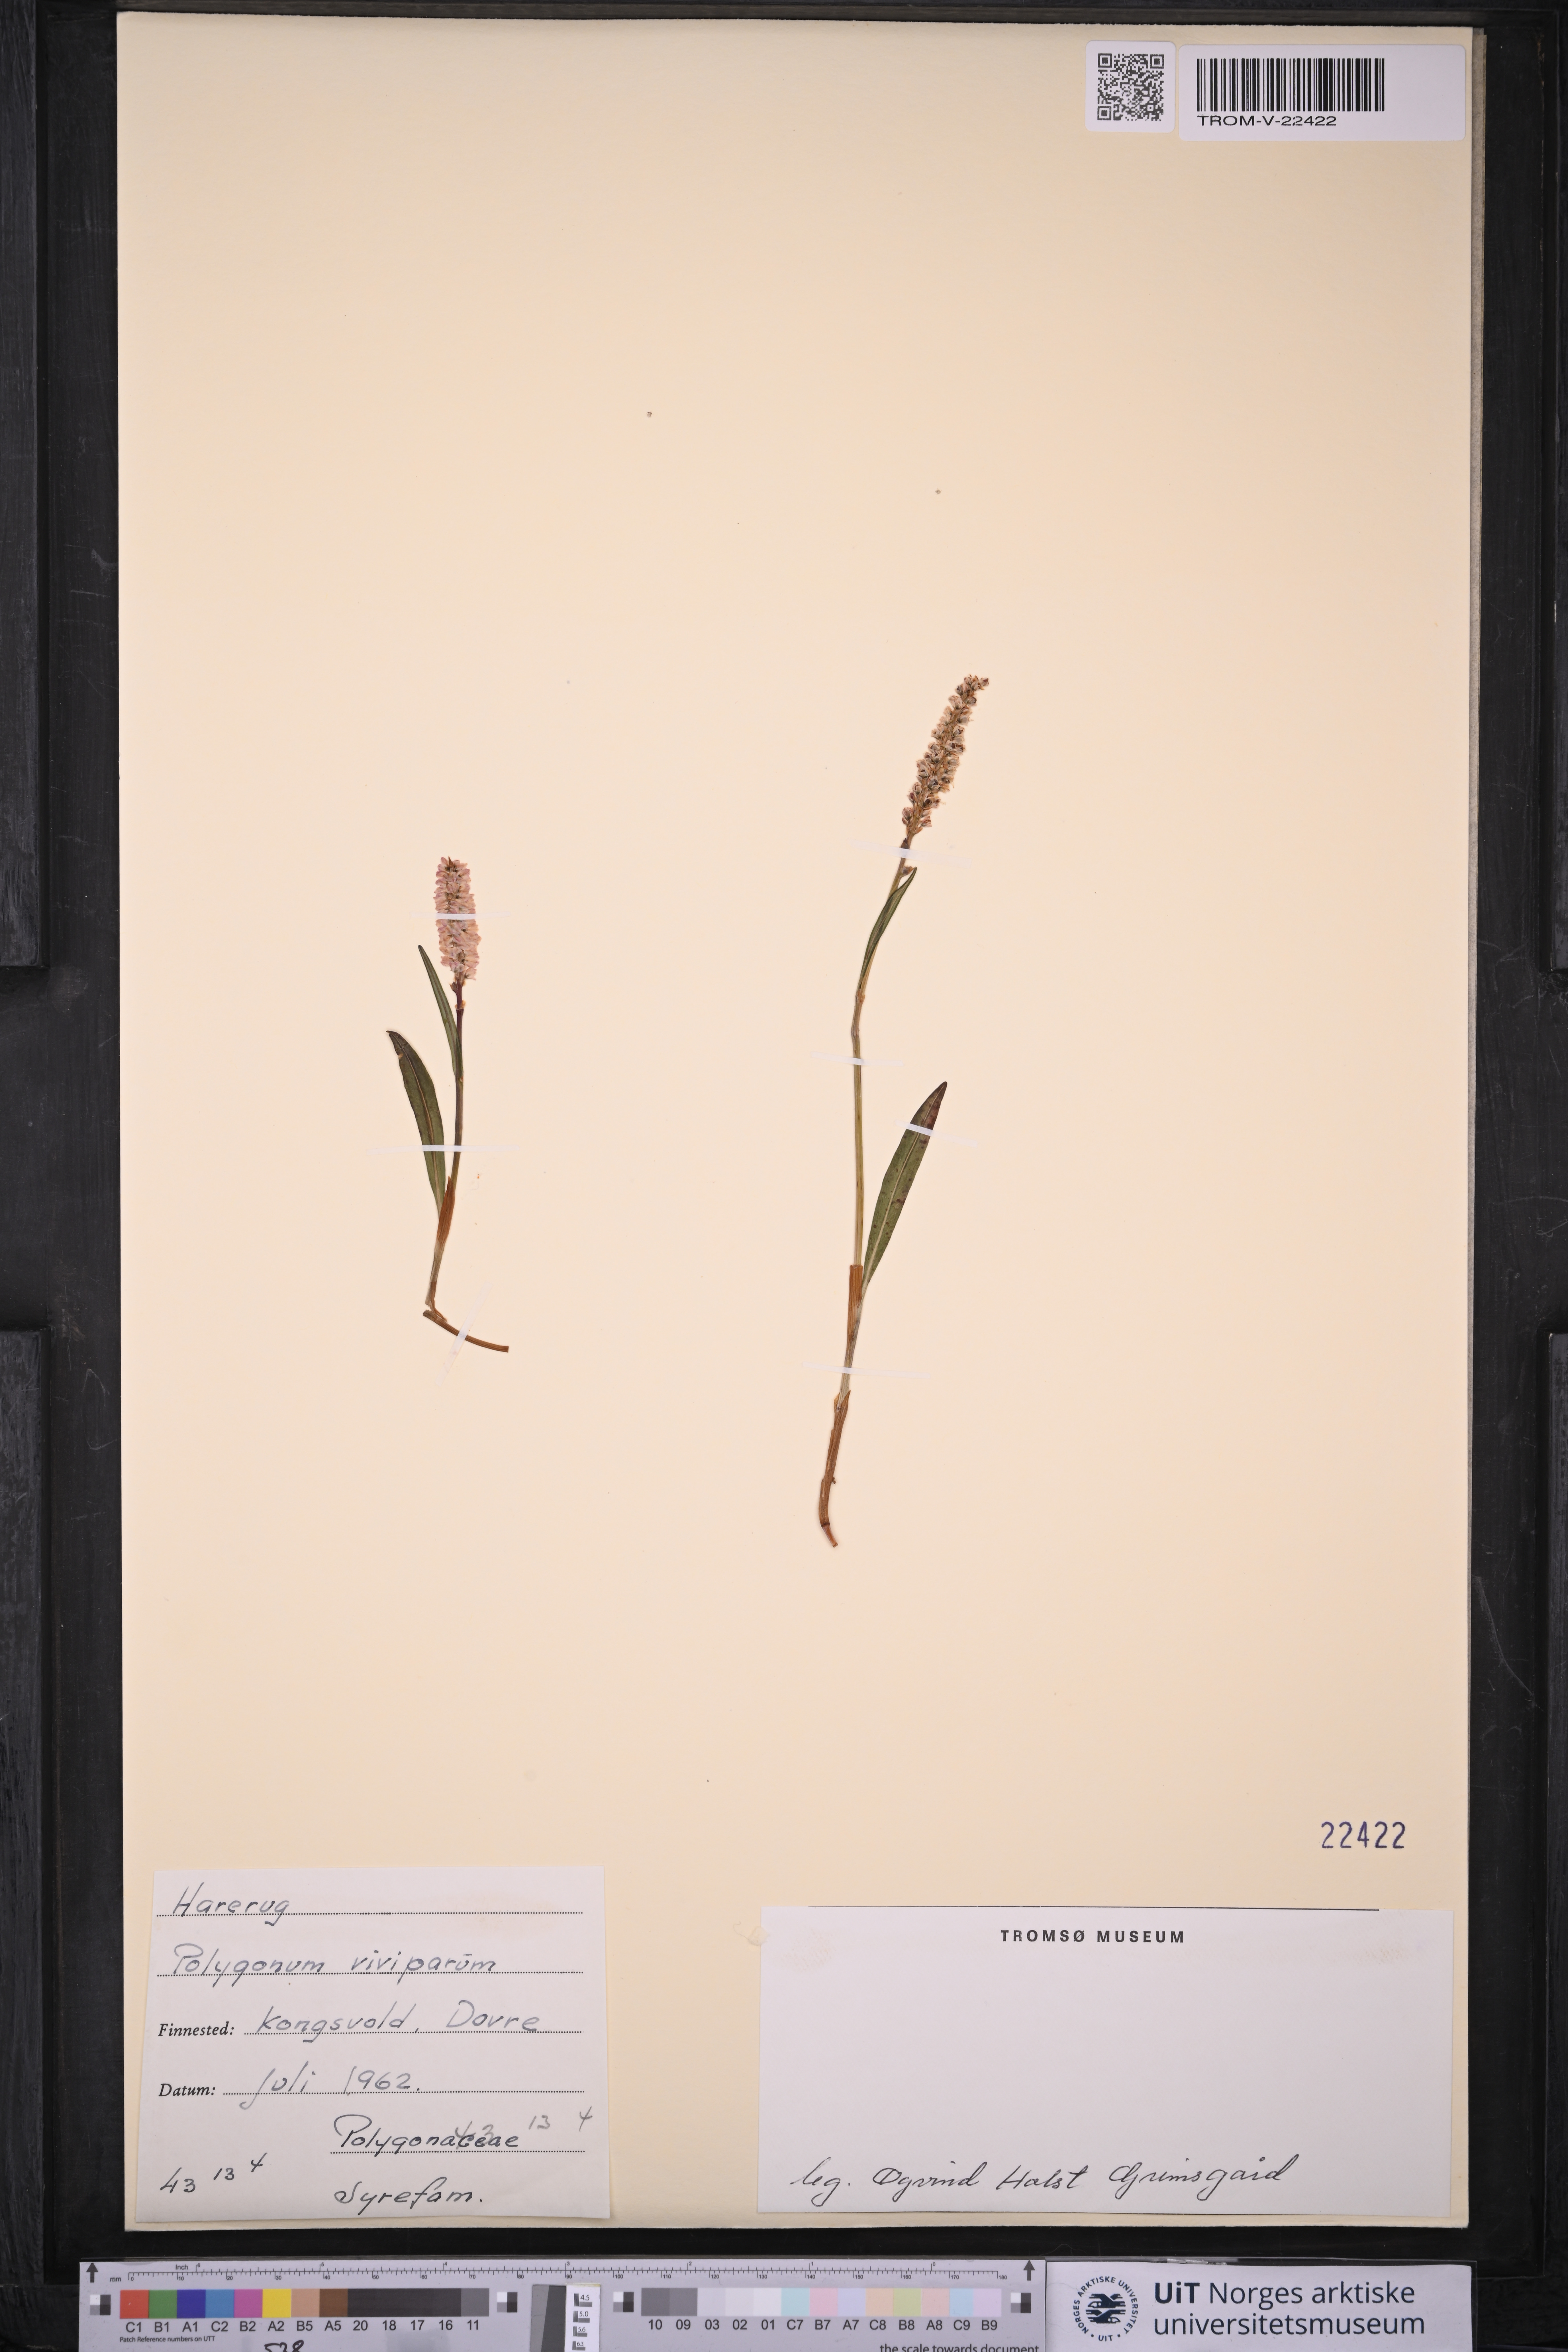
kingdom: Plantae
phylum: Tracheophyta
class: Magnoliopsida
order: Caryophyllales
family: Polygonaceae
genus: Bistorta
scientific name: Bistorta vivipara
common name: Alpine bistort
